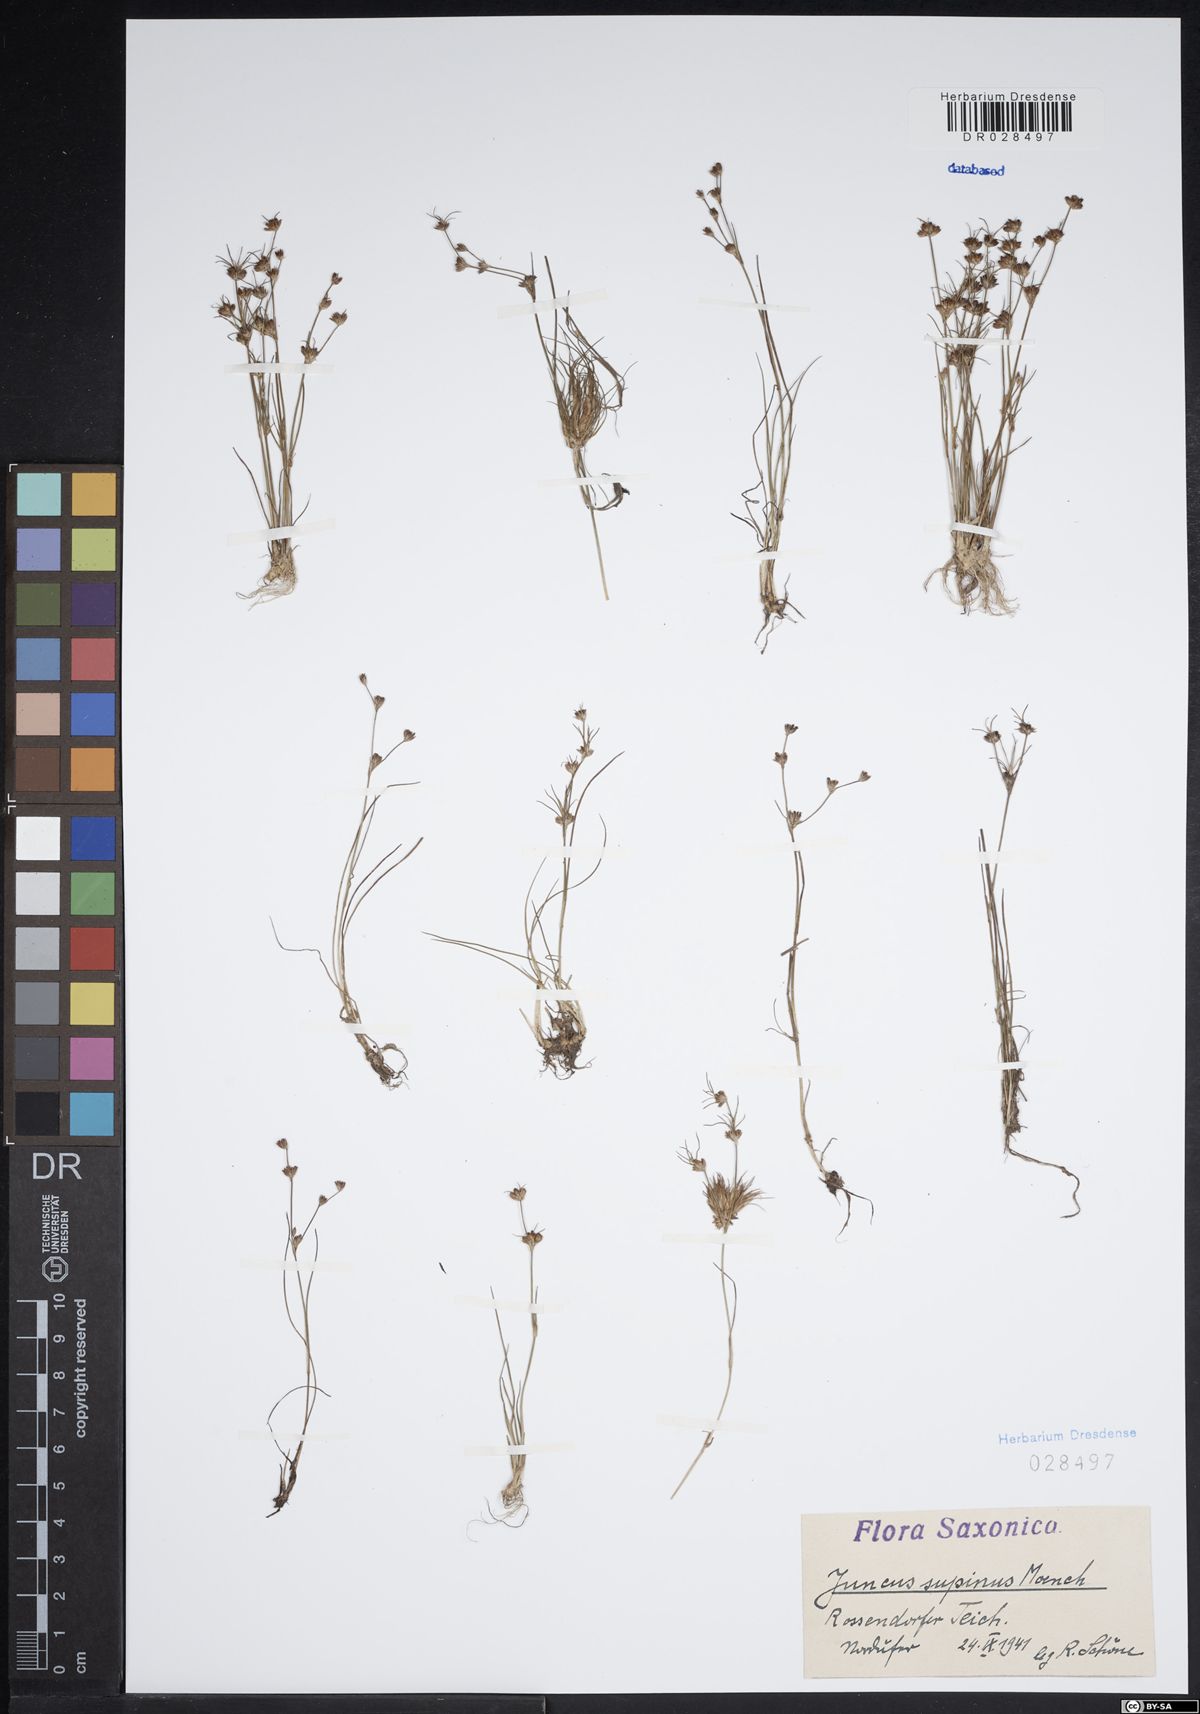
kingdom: Plantae
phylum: Tracheophyta
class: Liliopsida
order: Poales
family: Juncaceae
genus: Juncus
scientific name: Juncus bulbosus
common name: Bulbous rush
